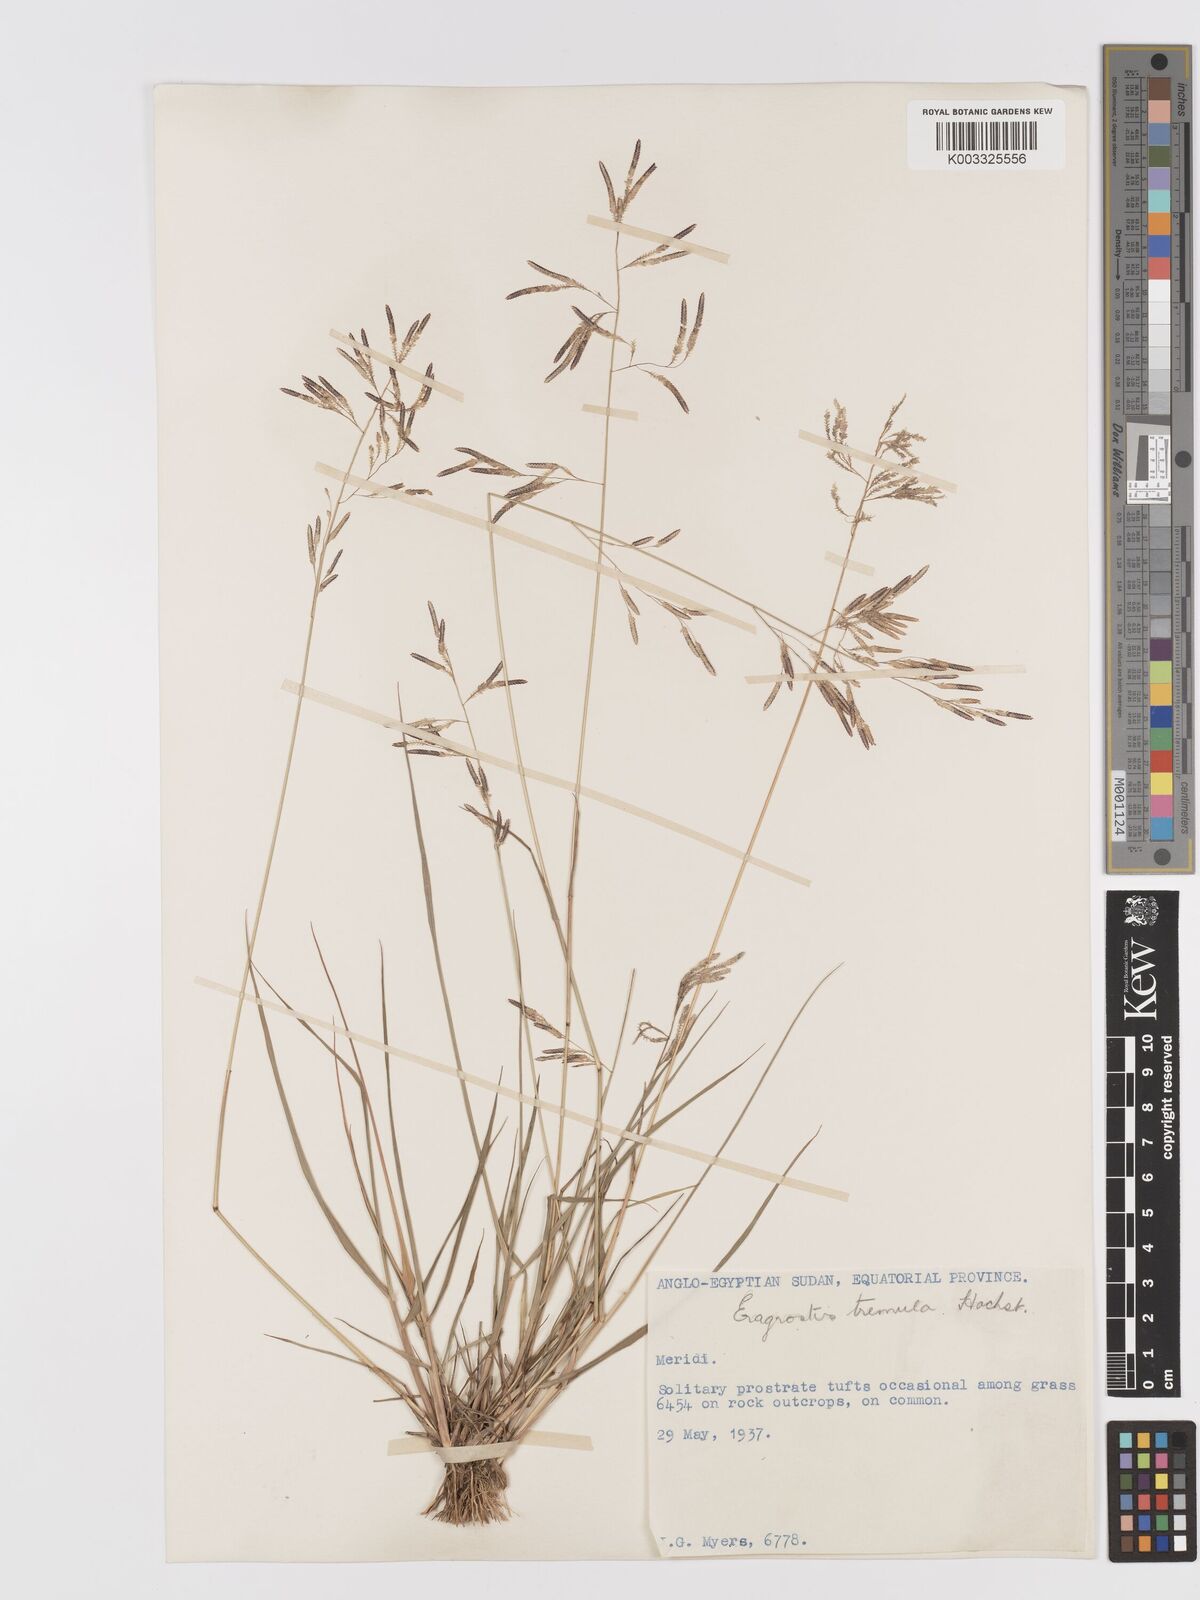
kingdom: Plantae
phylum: Tracheophyta
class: Liliopsida
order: Poales
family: Poaceae
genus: Eragrostis
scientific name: Eragrostis tremula
